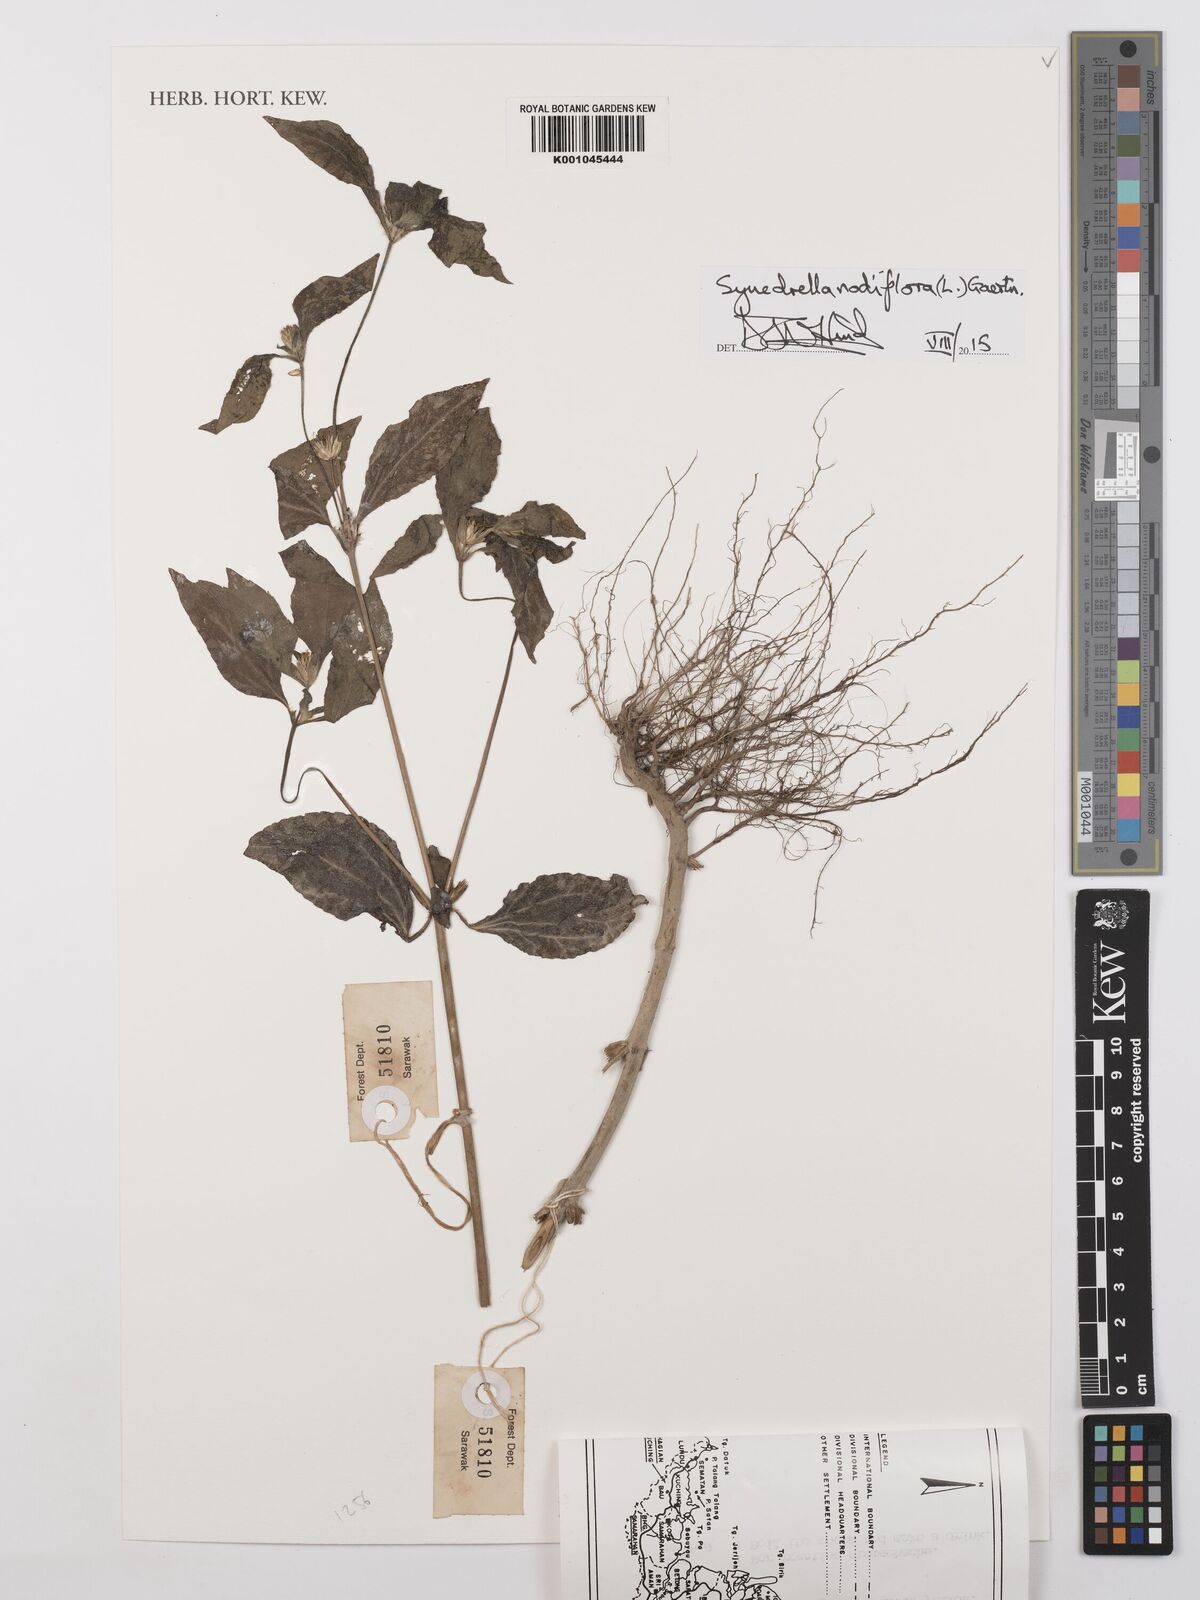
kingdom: Plantae
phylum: Tracheophyta
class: Magnoliopsida
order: Asterales
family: Asteraceae
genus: Synedrella
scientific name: Synedrella nodiflora
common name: Nodeweed
